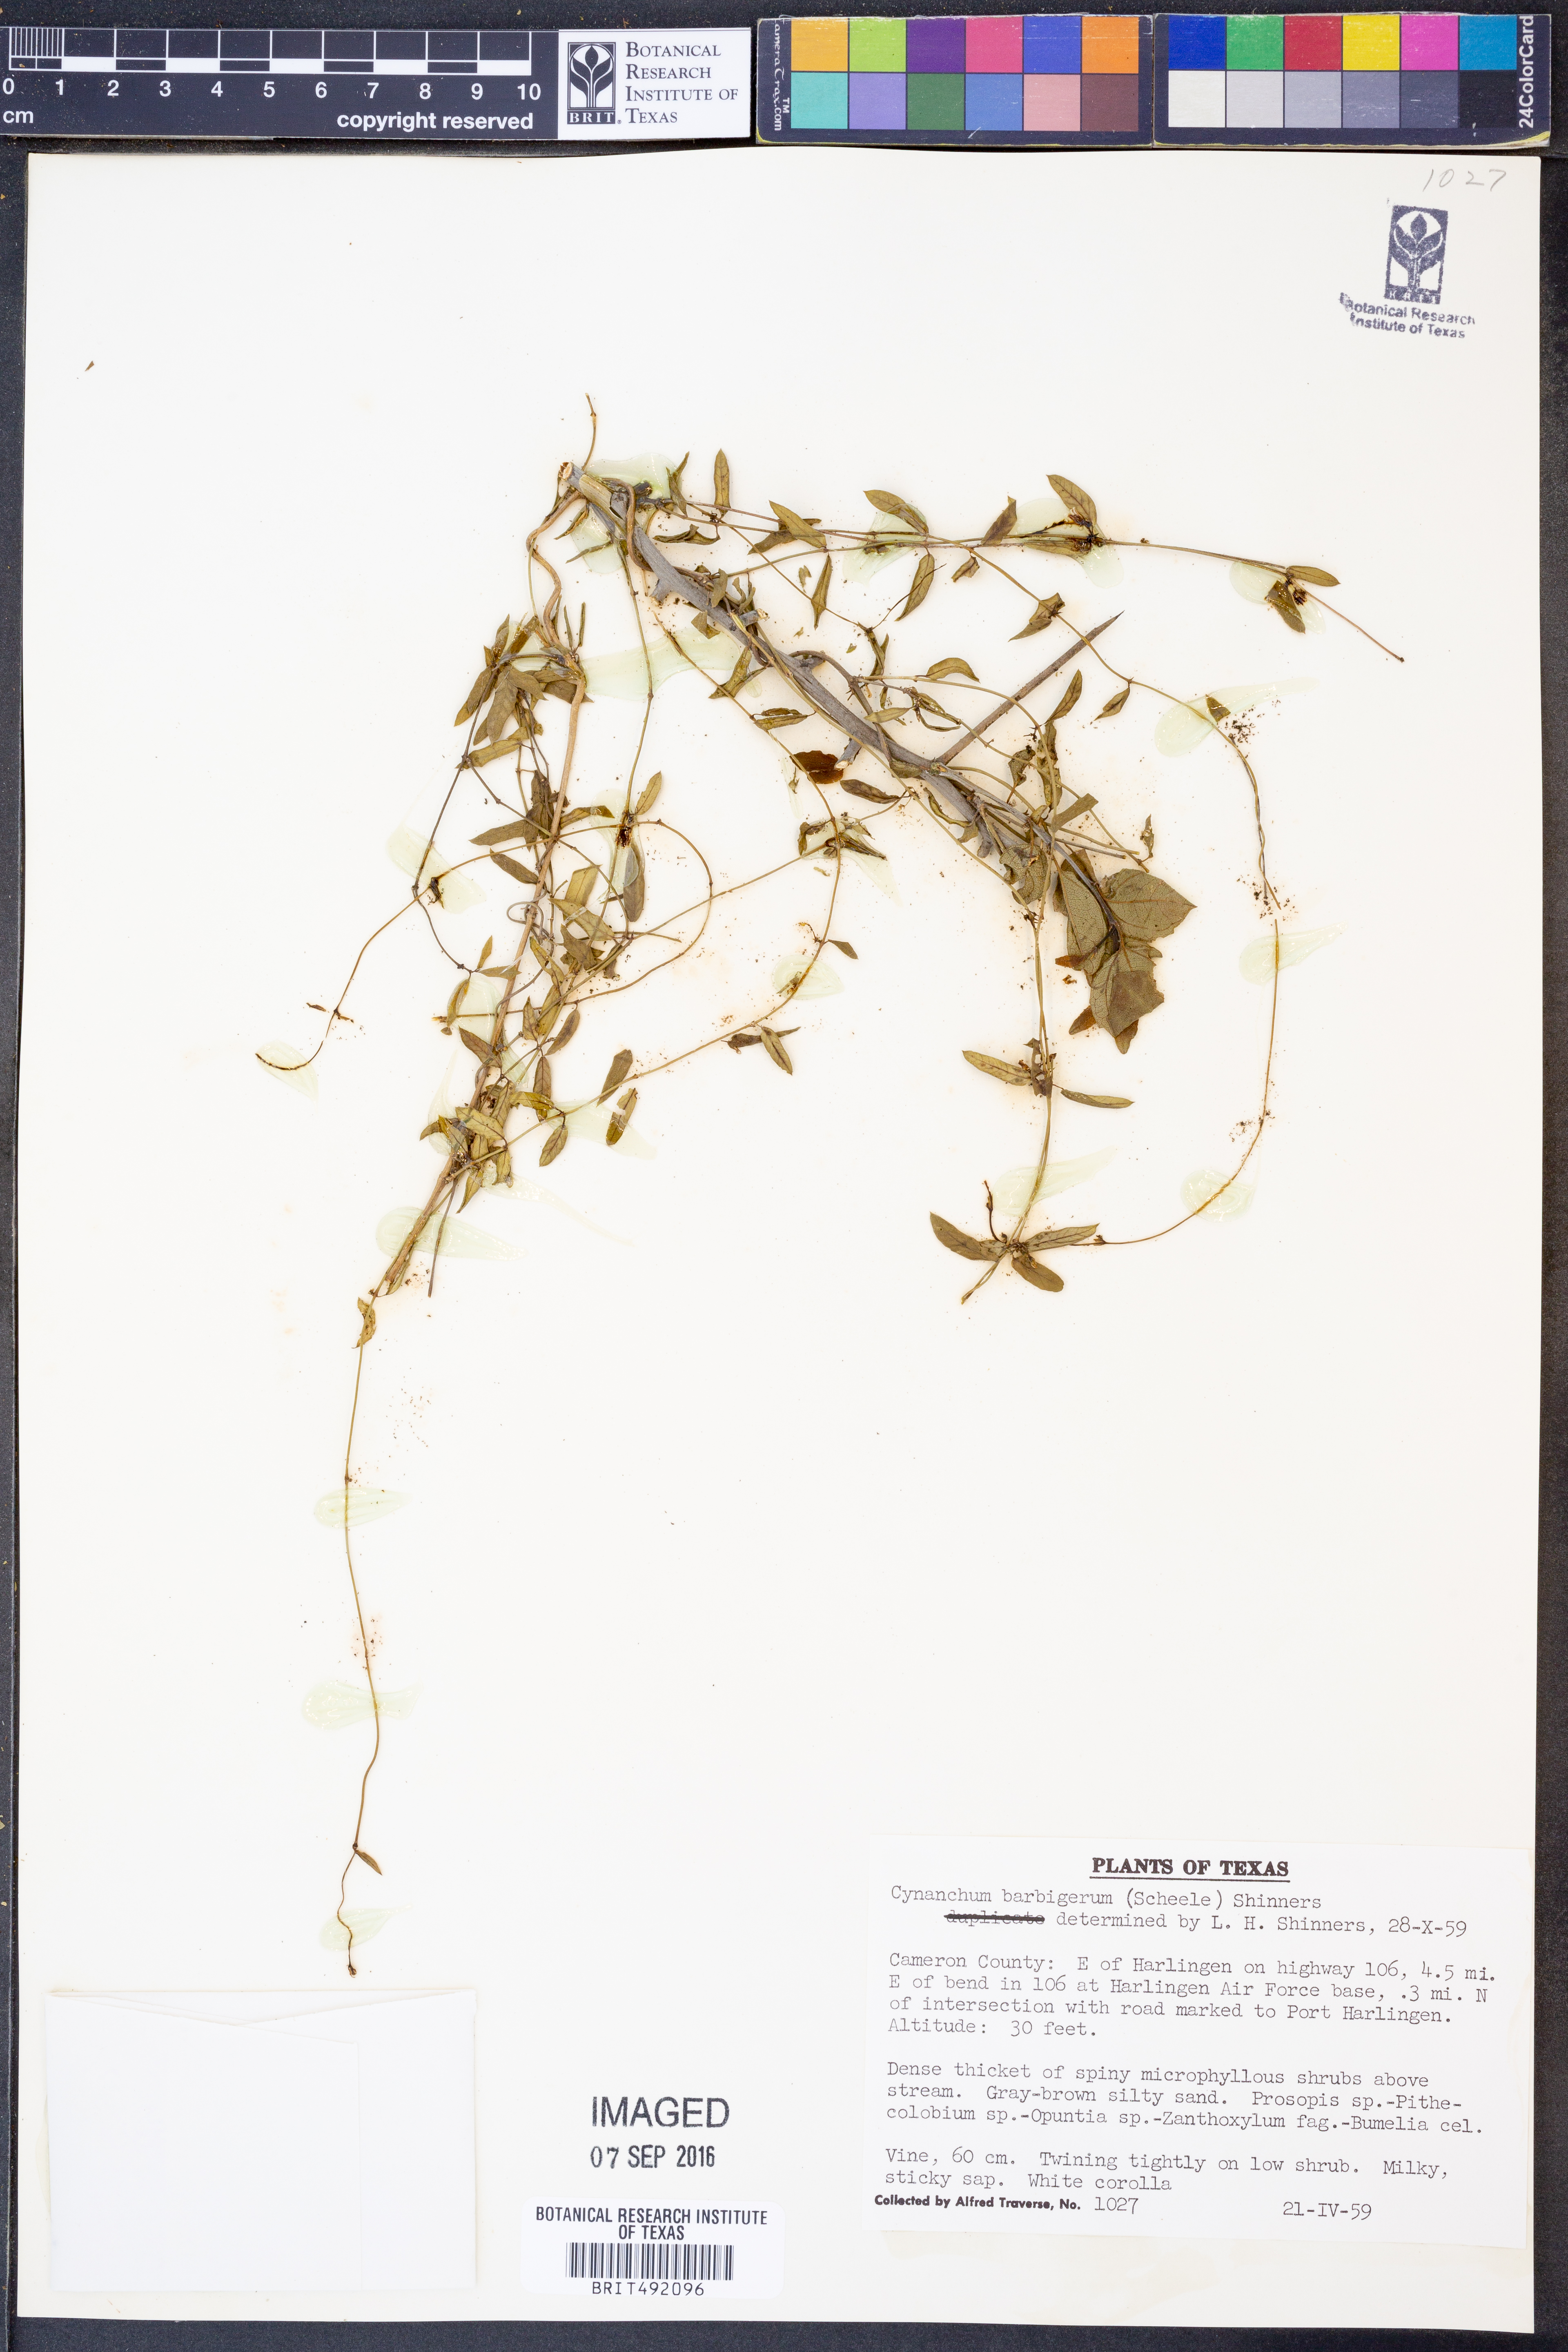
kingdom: Plantae
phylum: Tracheophyta
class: Magnoliopsida
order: Gentianales
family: Apocynaceae
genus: Metastelma
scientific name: Metastelma barbigerum
